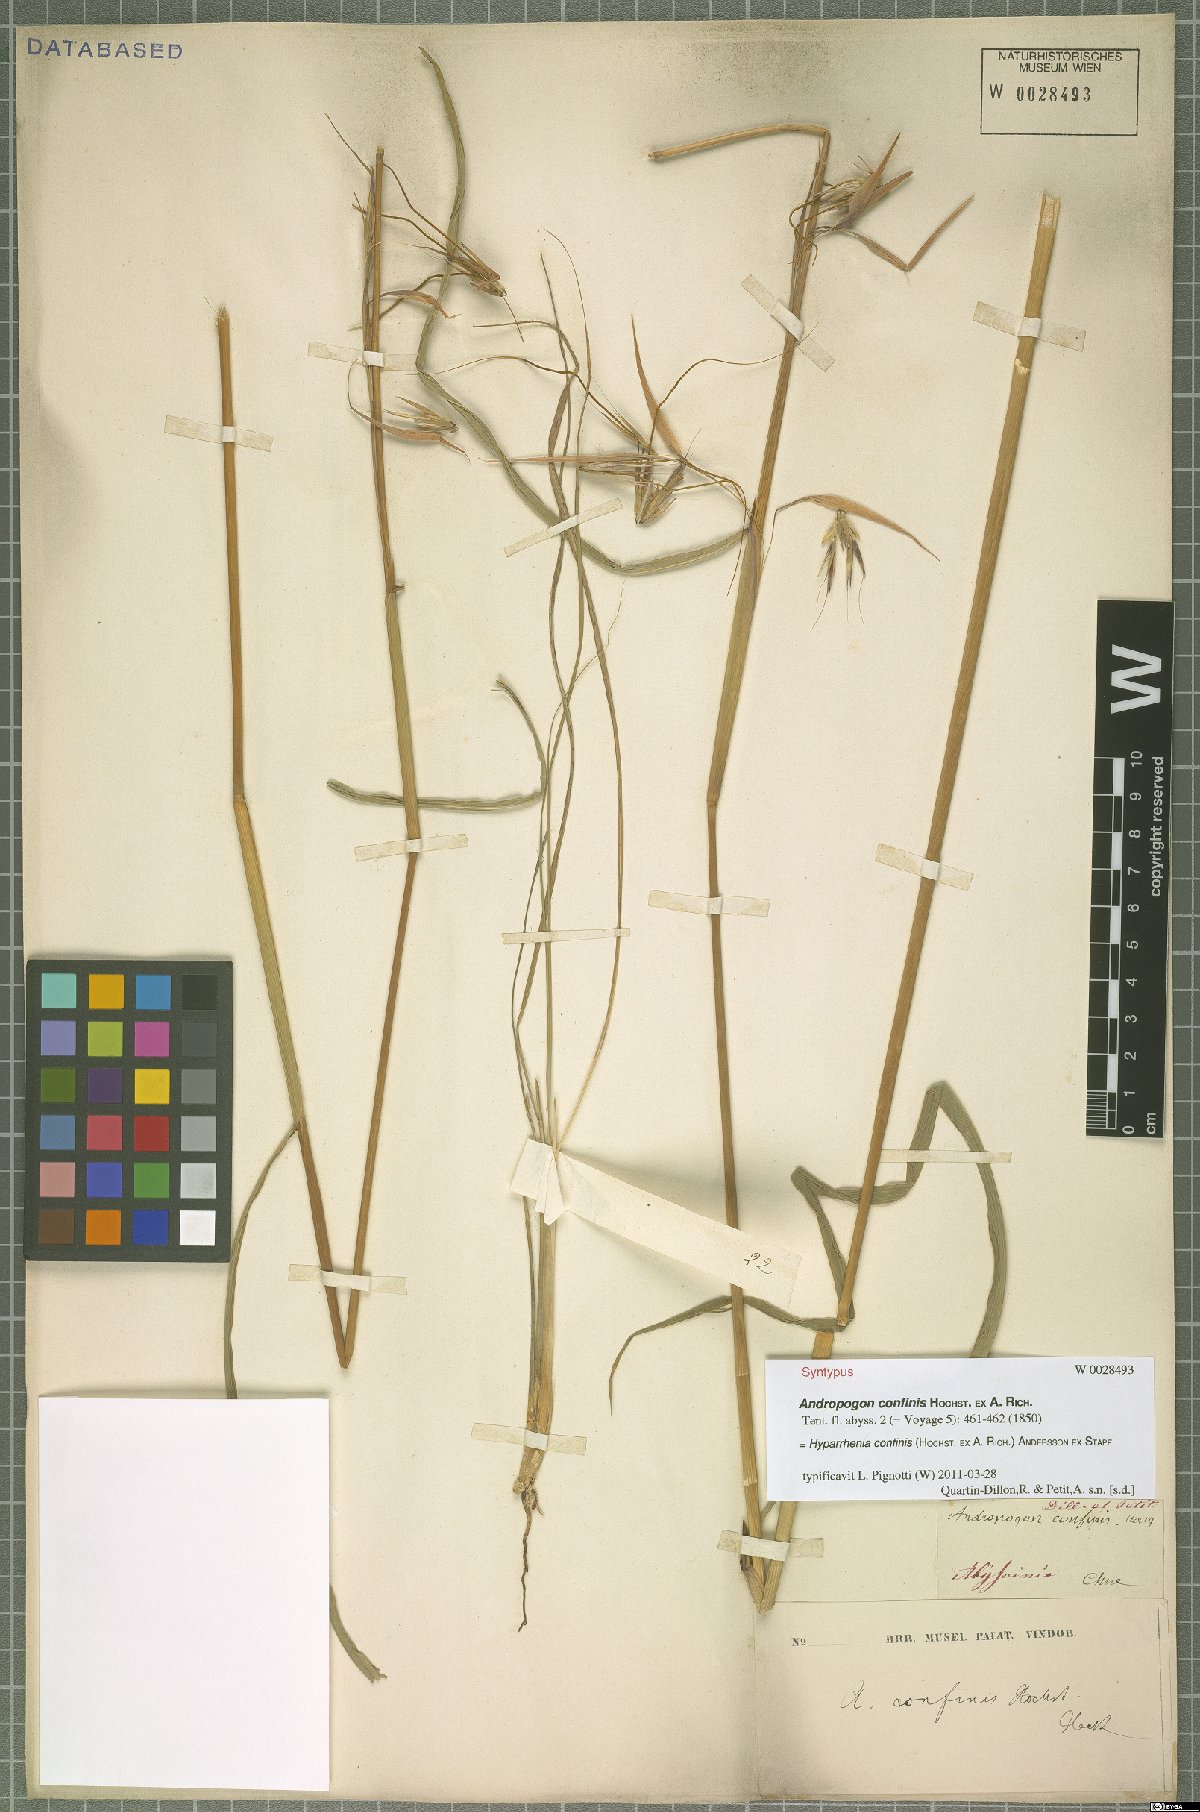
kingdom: Plantae
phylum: Tracheophyta
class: Liliopsida
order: Poales
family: Poaceae
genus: Hyparrhenia
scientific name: Hyparrhenia confinis
